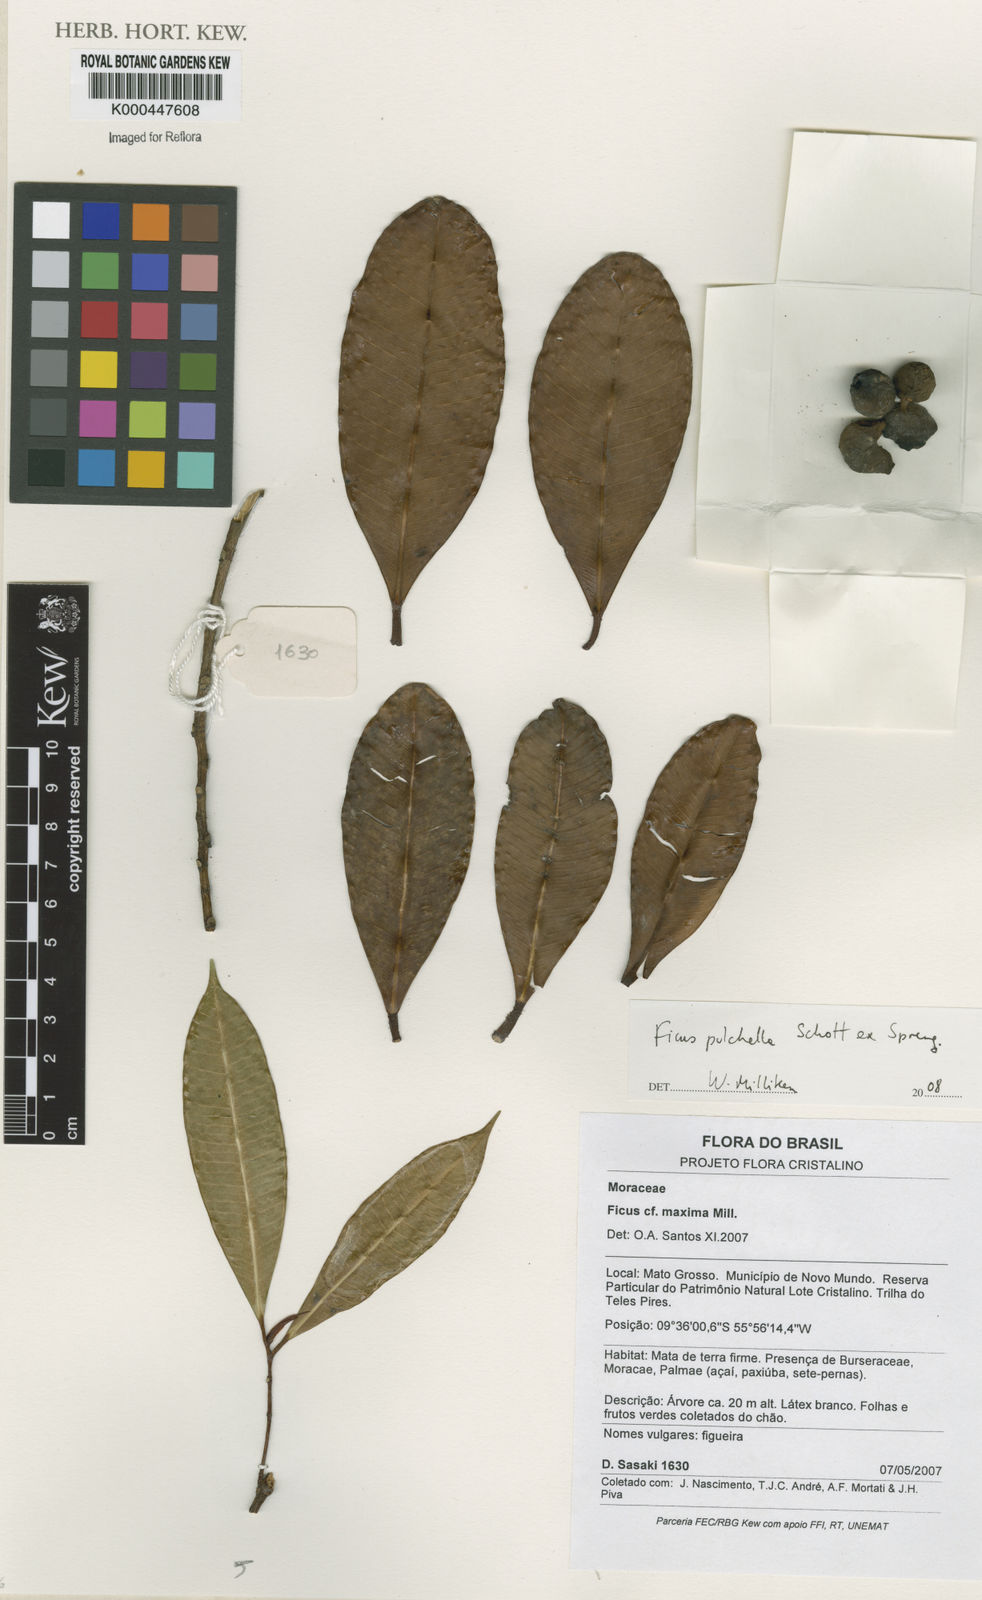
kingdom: Plantae
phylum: Tracheophyta
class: Magnoliopsida
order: Rosales
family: Moraceae
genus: Ficus
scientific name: Ficus pulchella
